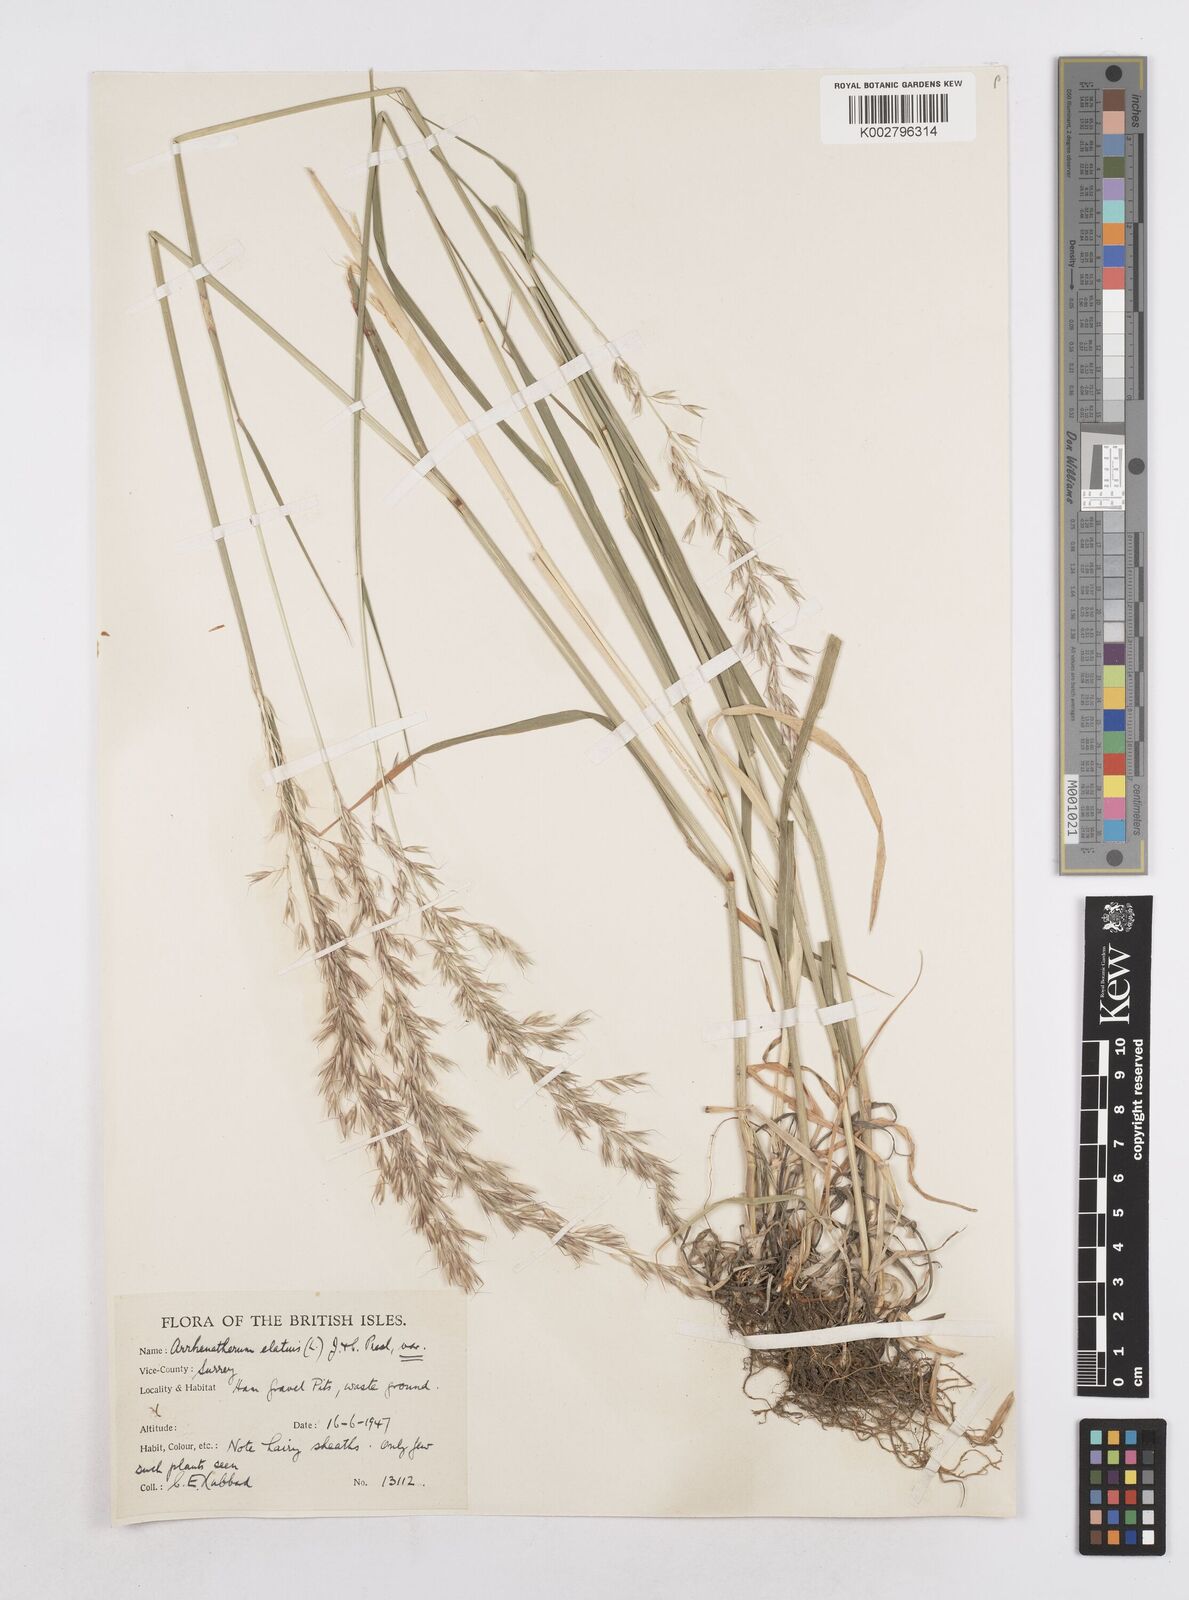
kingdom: Plantae
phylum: Tracheophyta
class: Liliopsida
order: Poales
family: Poaceae
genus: Arrhenatherum
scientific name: Arrhenatherum elatius
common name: Tall oatgrass
